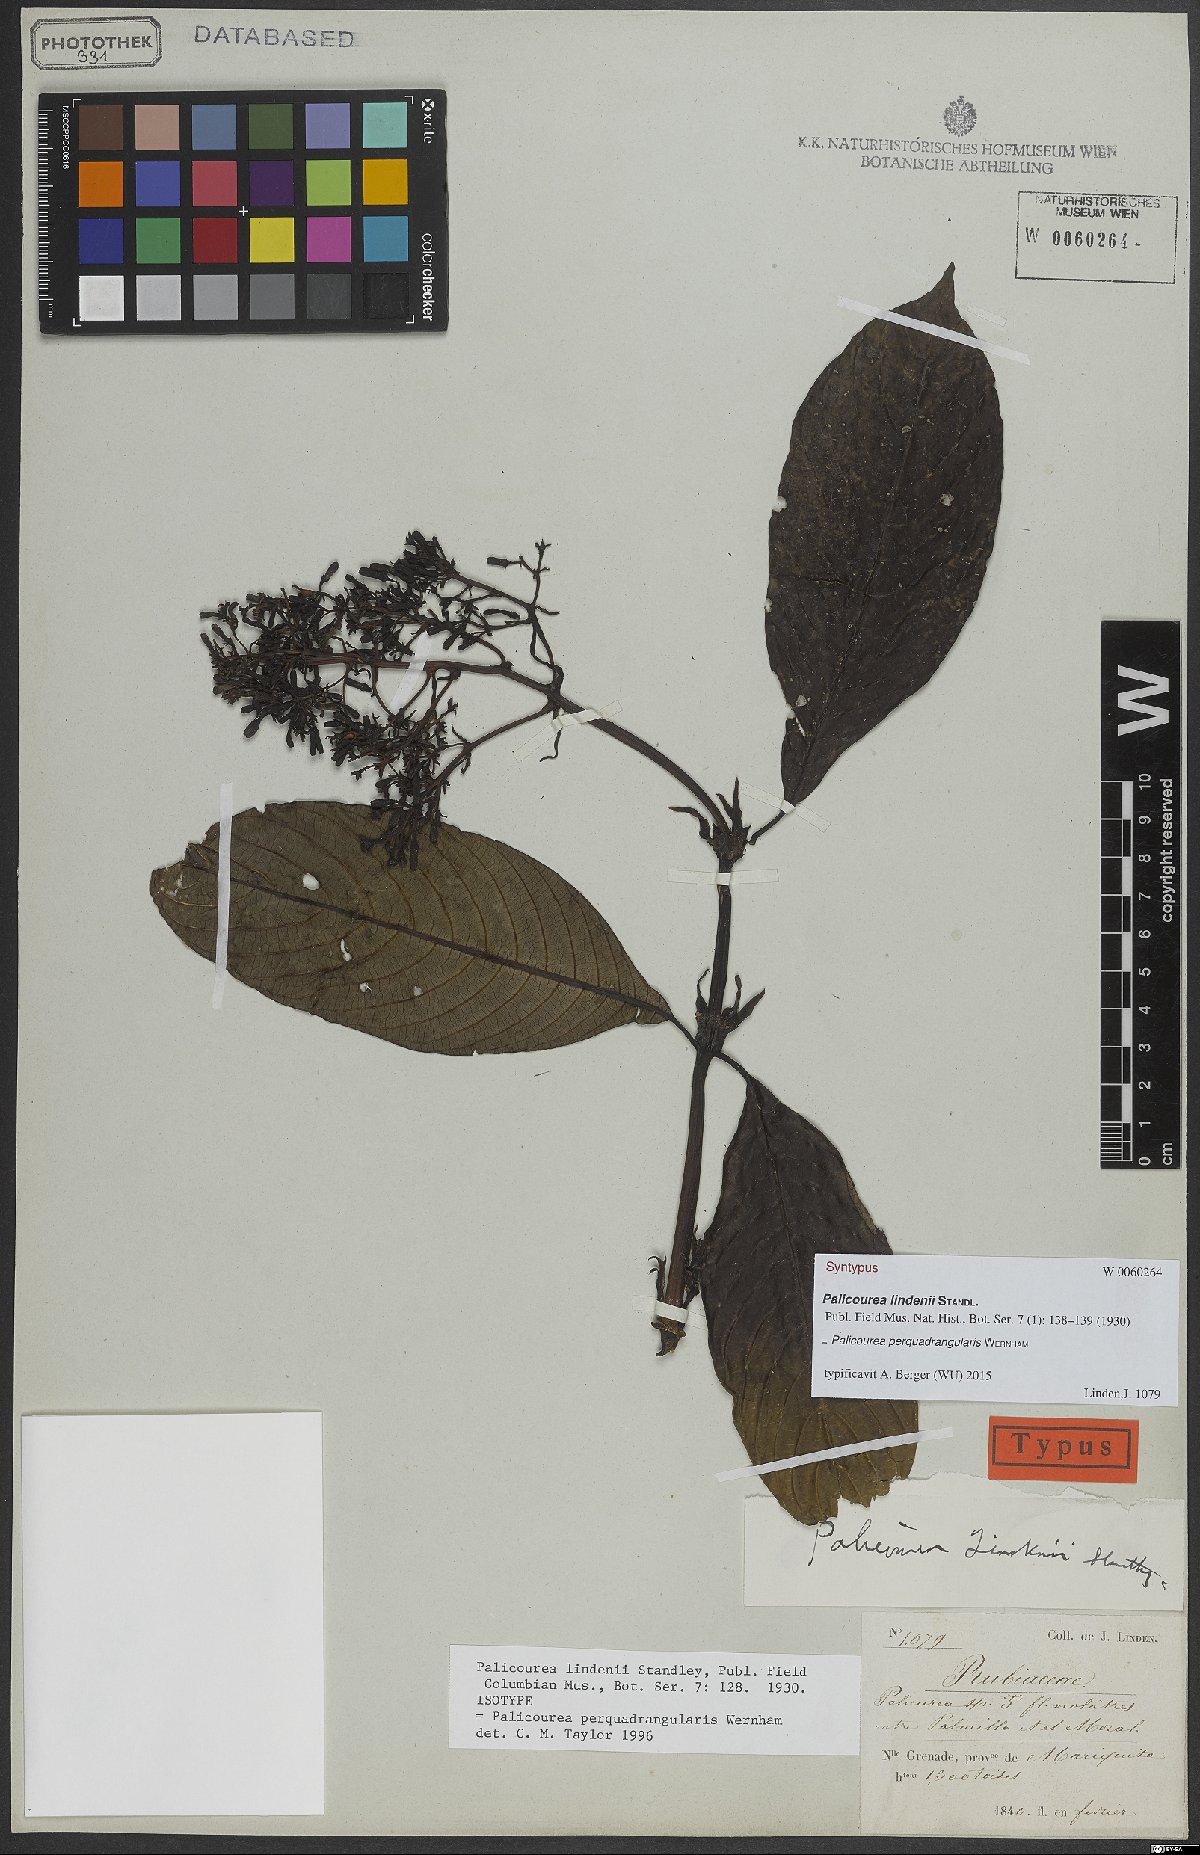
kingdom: Plantae
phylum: Tracheophyta
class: Magnoliopsida
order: Gentianales
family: Rubiaceae
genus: Palicourea
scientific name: Palicourea perquadrangularis
